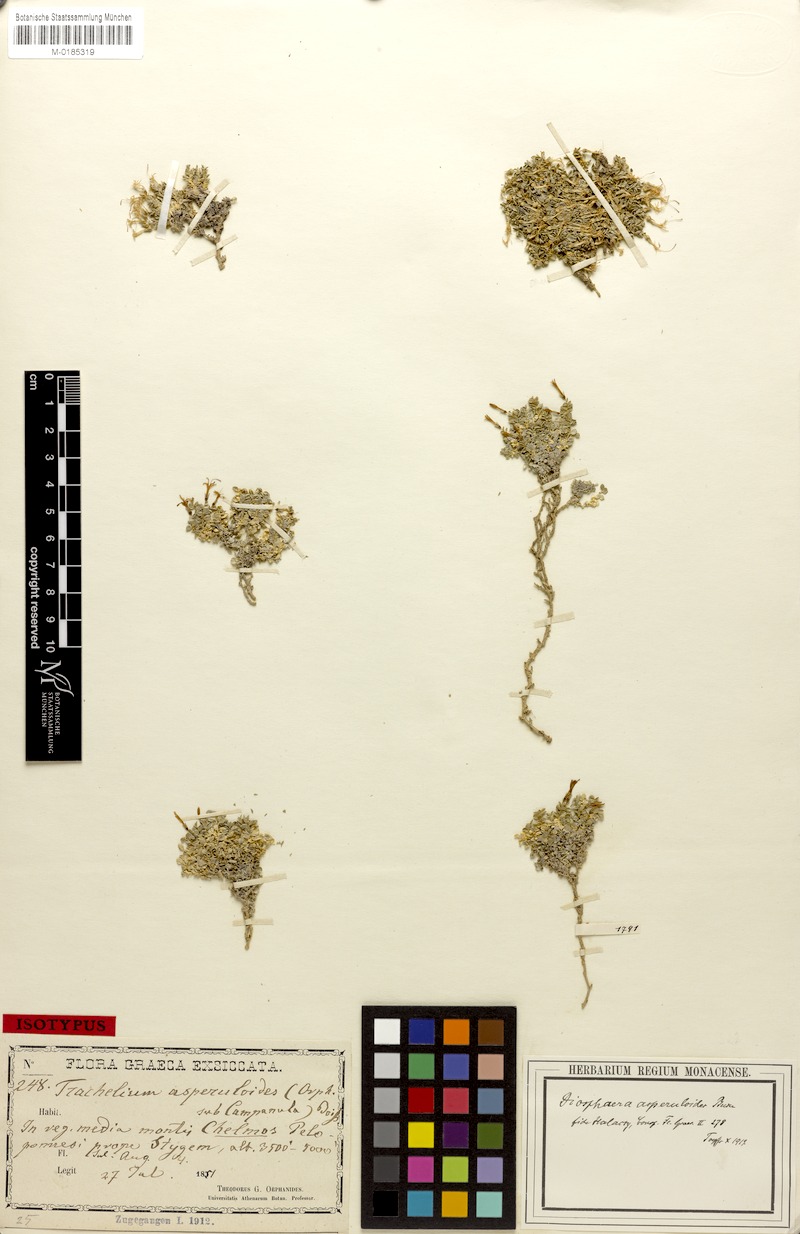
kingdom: Plantae
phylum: Tracheophyta
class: Magnoliopsida
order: Asterales
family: Campanulaceae
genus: Campanula
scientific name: Campanula asperuloides
